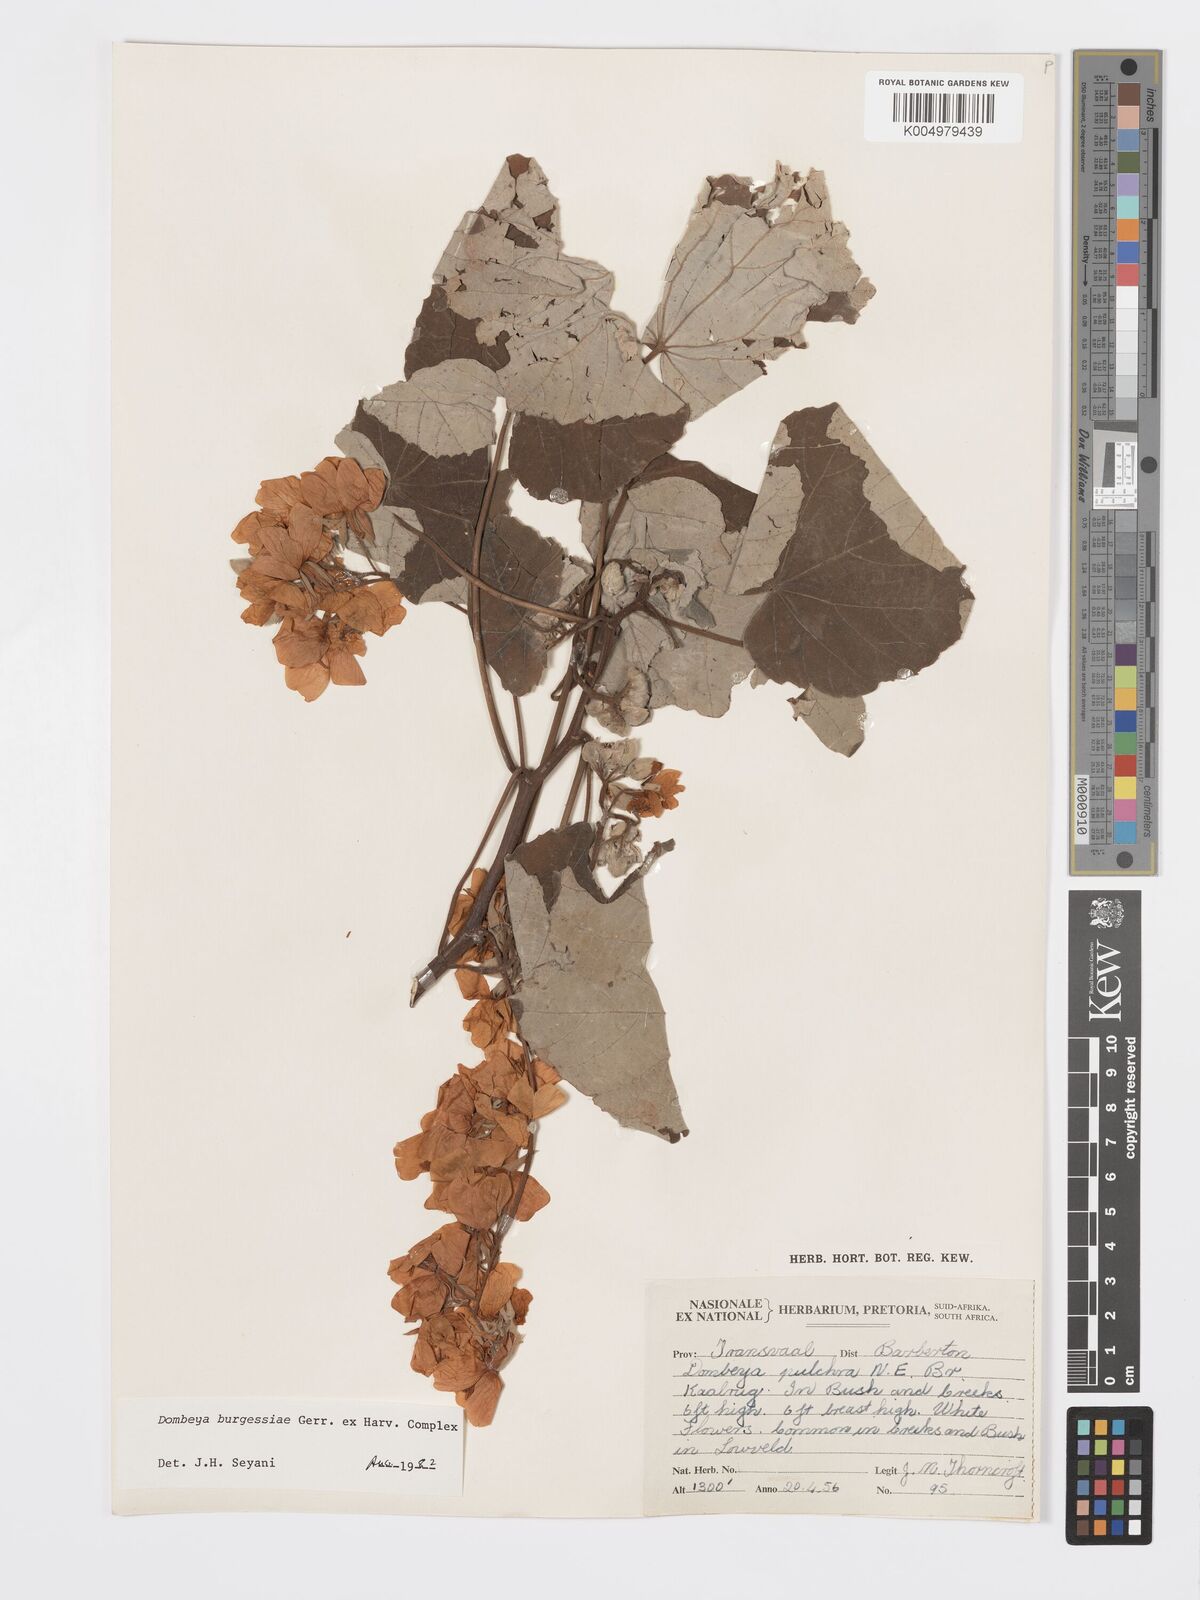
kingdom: Plantae
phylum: Tracheophyta
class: Magnoliopsida
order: Malvales
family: Malvaceae
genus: Dombeya
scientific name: Dombeya burgessiae
